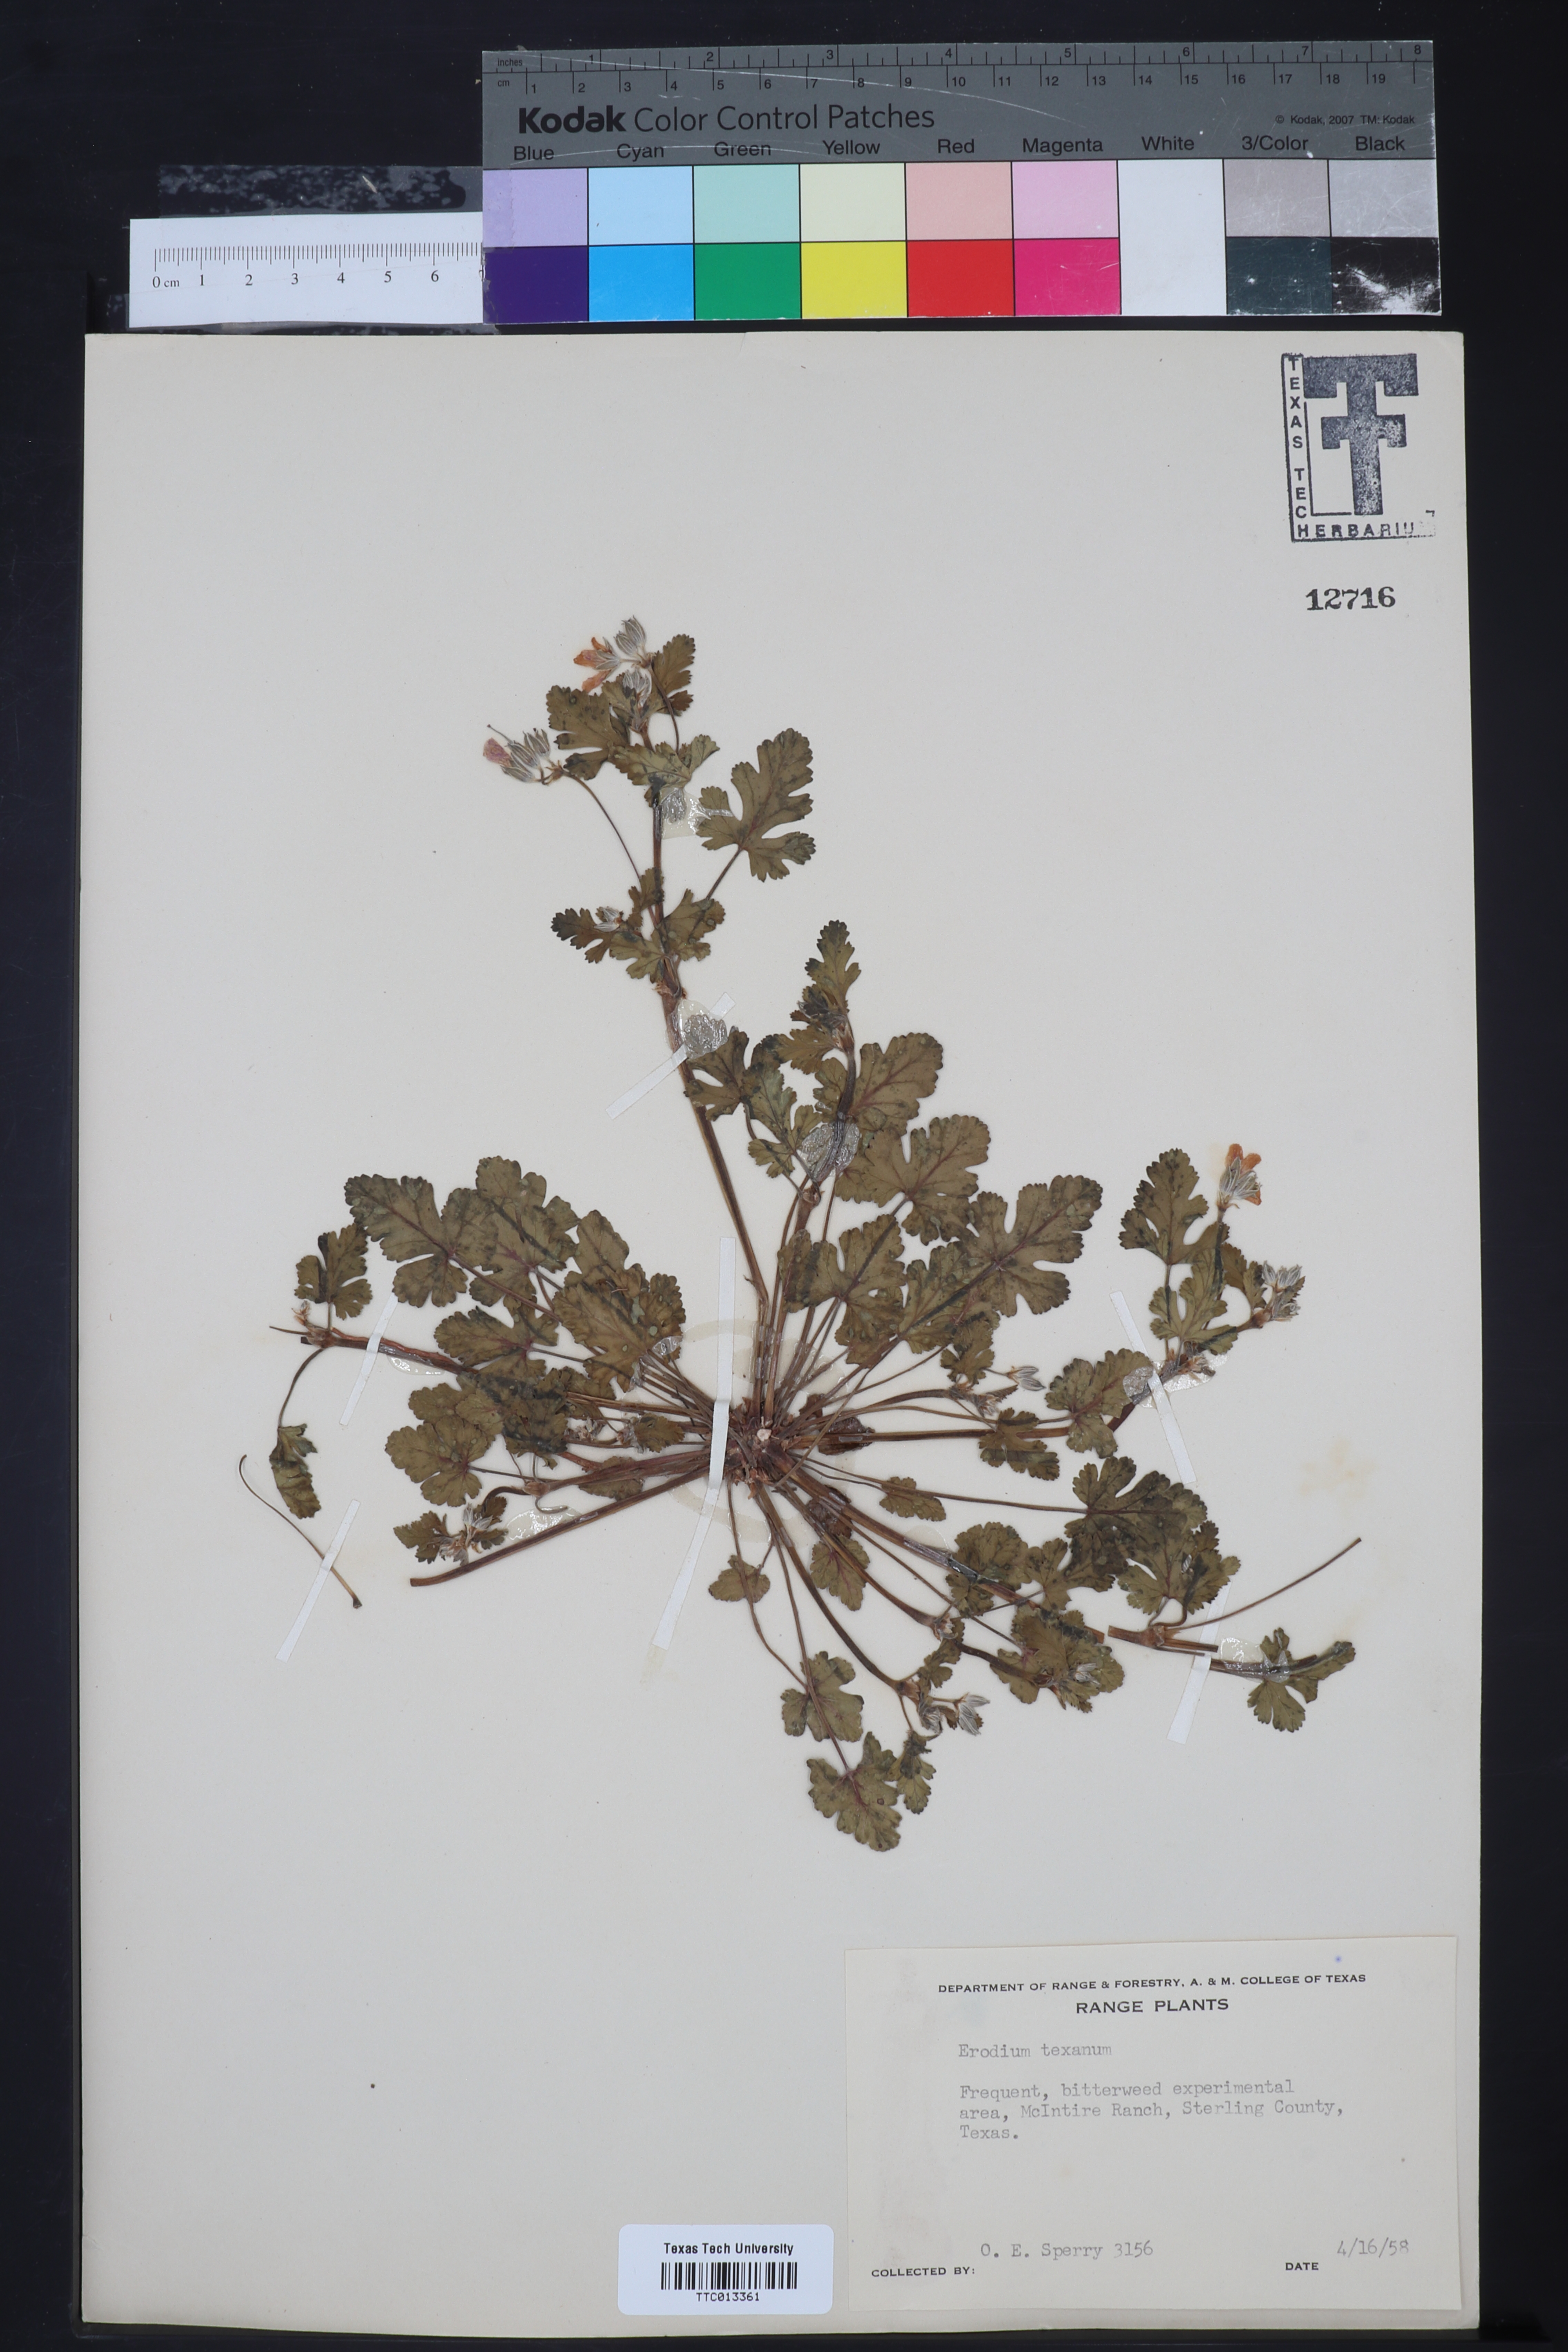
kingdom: Plantae
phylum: Tracheophyta
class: Magnoliopsida
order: Geraniales
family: Geraniaceae
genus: Erodium
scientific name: Erodium texanum
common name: Texas stork's-bill
